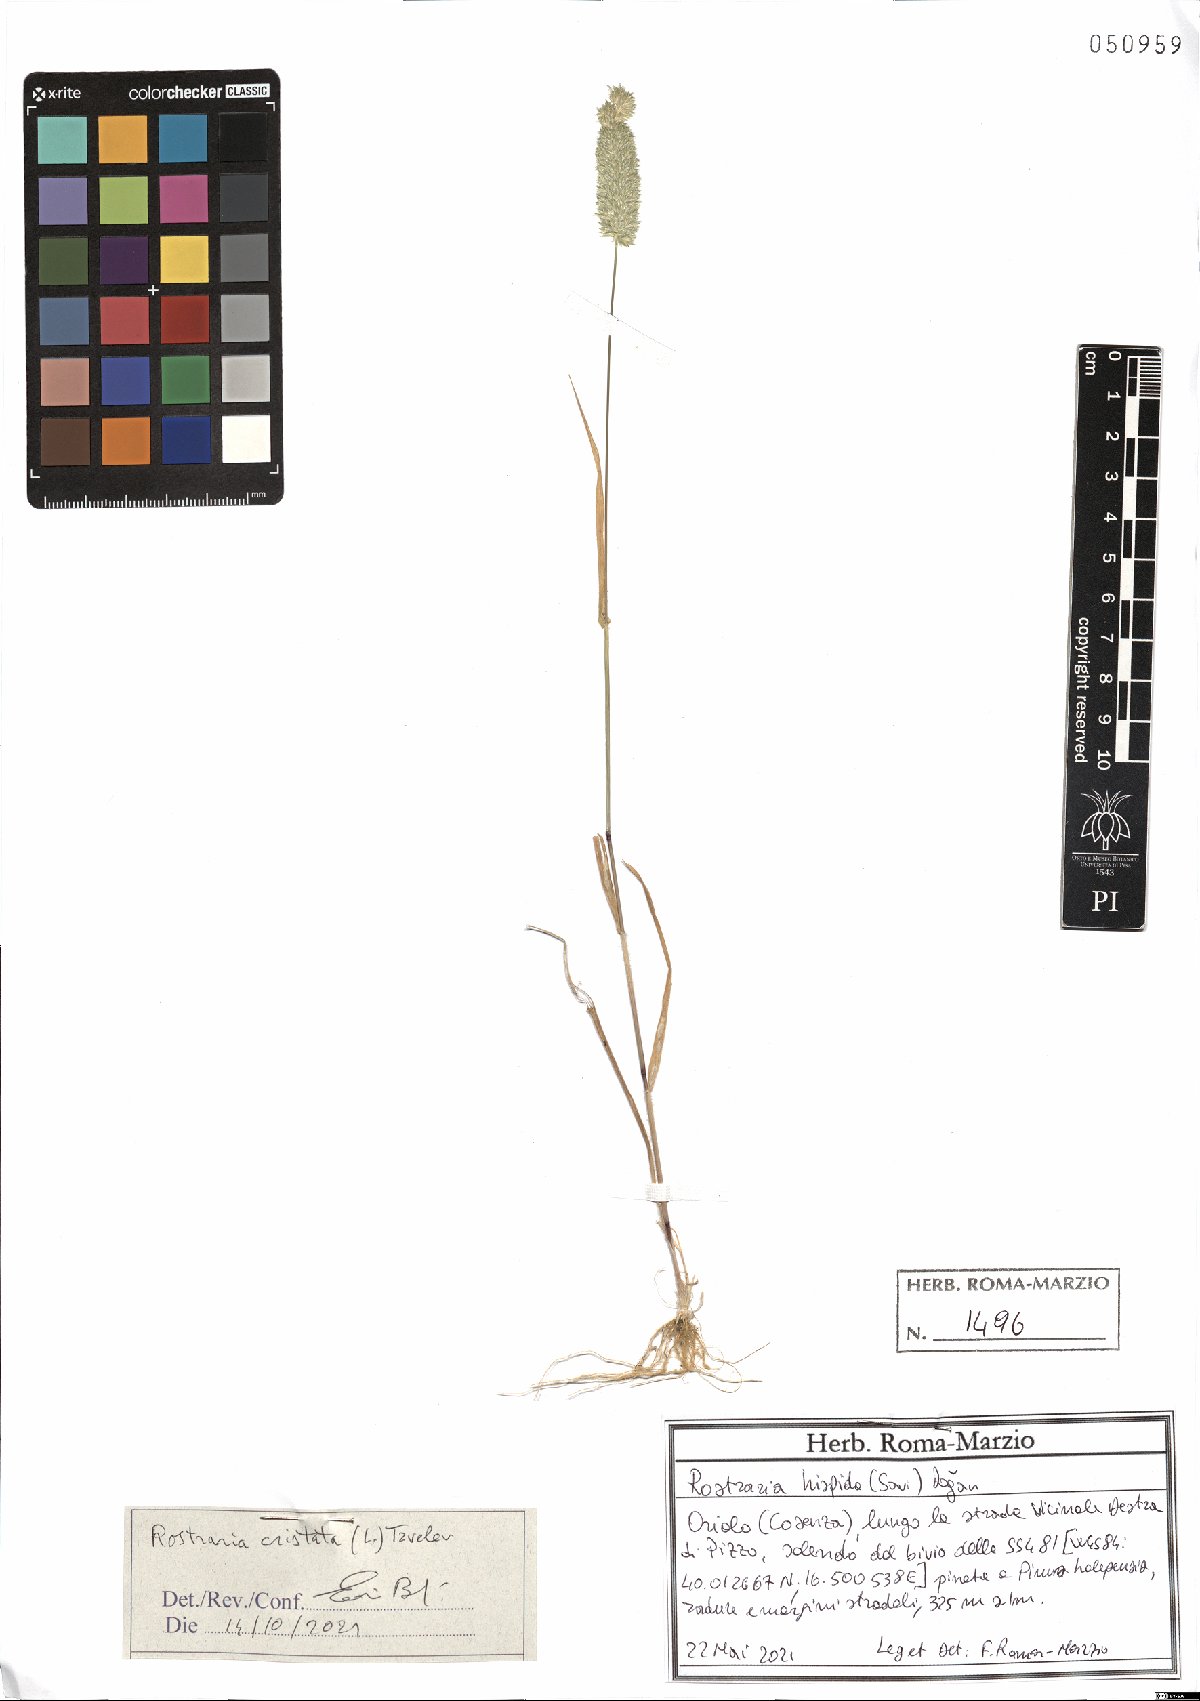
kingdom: Plantae
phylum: Tracheophyta
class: Liliopsida
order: Poales
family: Poaceae
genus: Rostraria
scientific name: Rostraria cristata
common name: Mediterranean hair-grass
